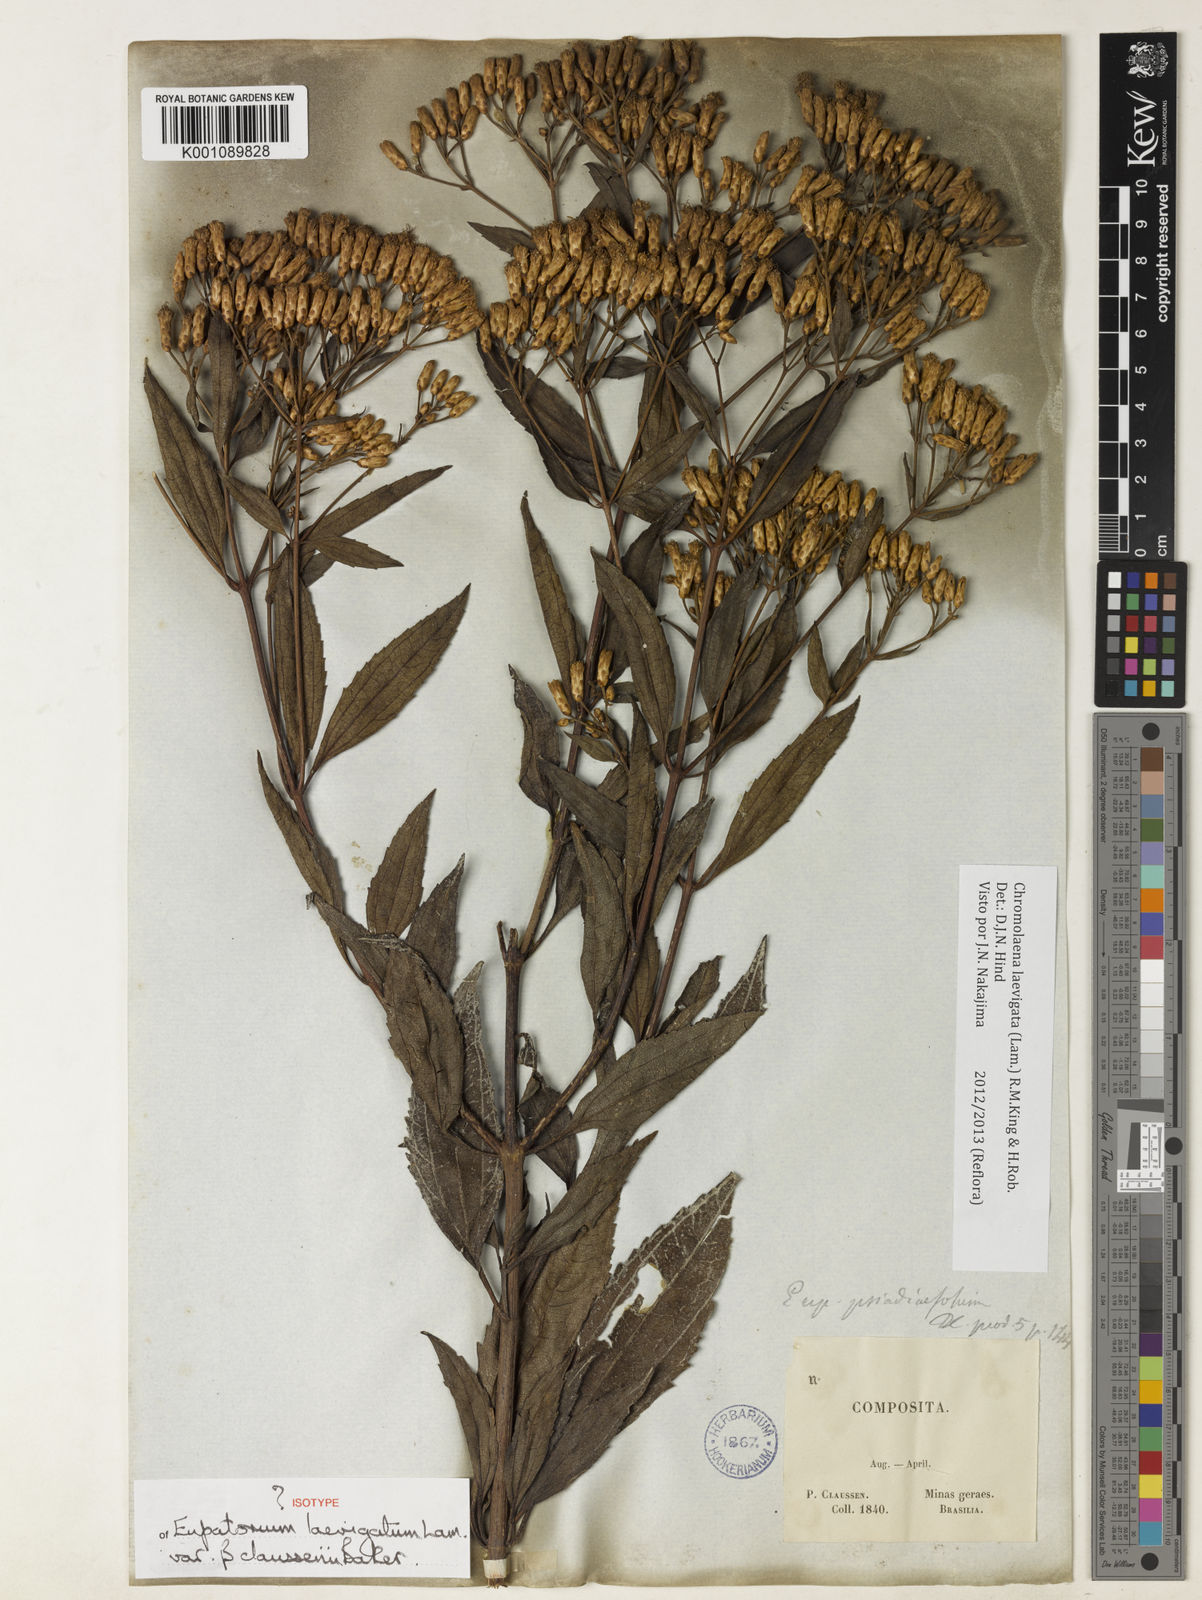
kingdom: Plantae
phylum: Tracheophyta
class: Magnoliopsida
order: Asterales
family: Asteraceae
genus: Chromolaena
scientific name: Chromolaena laevigata
